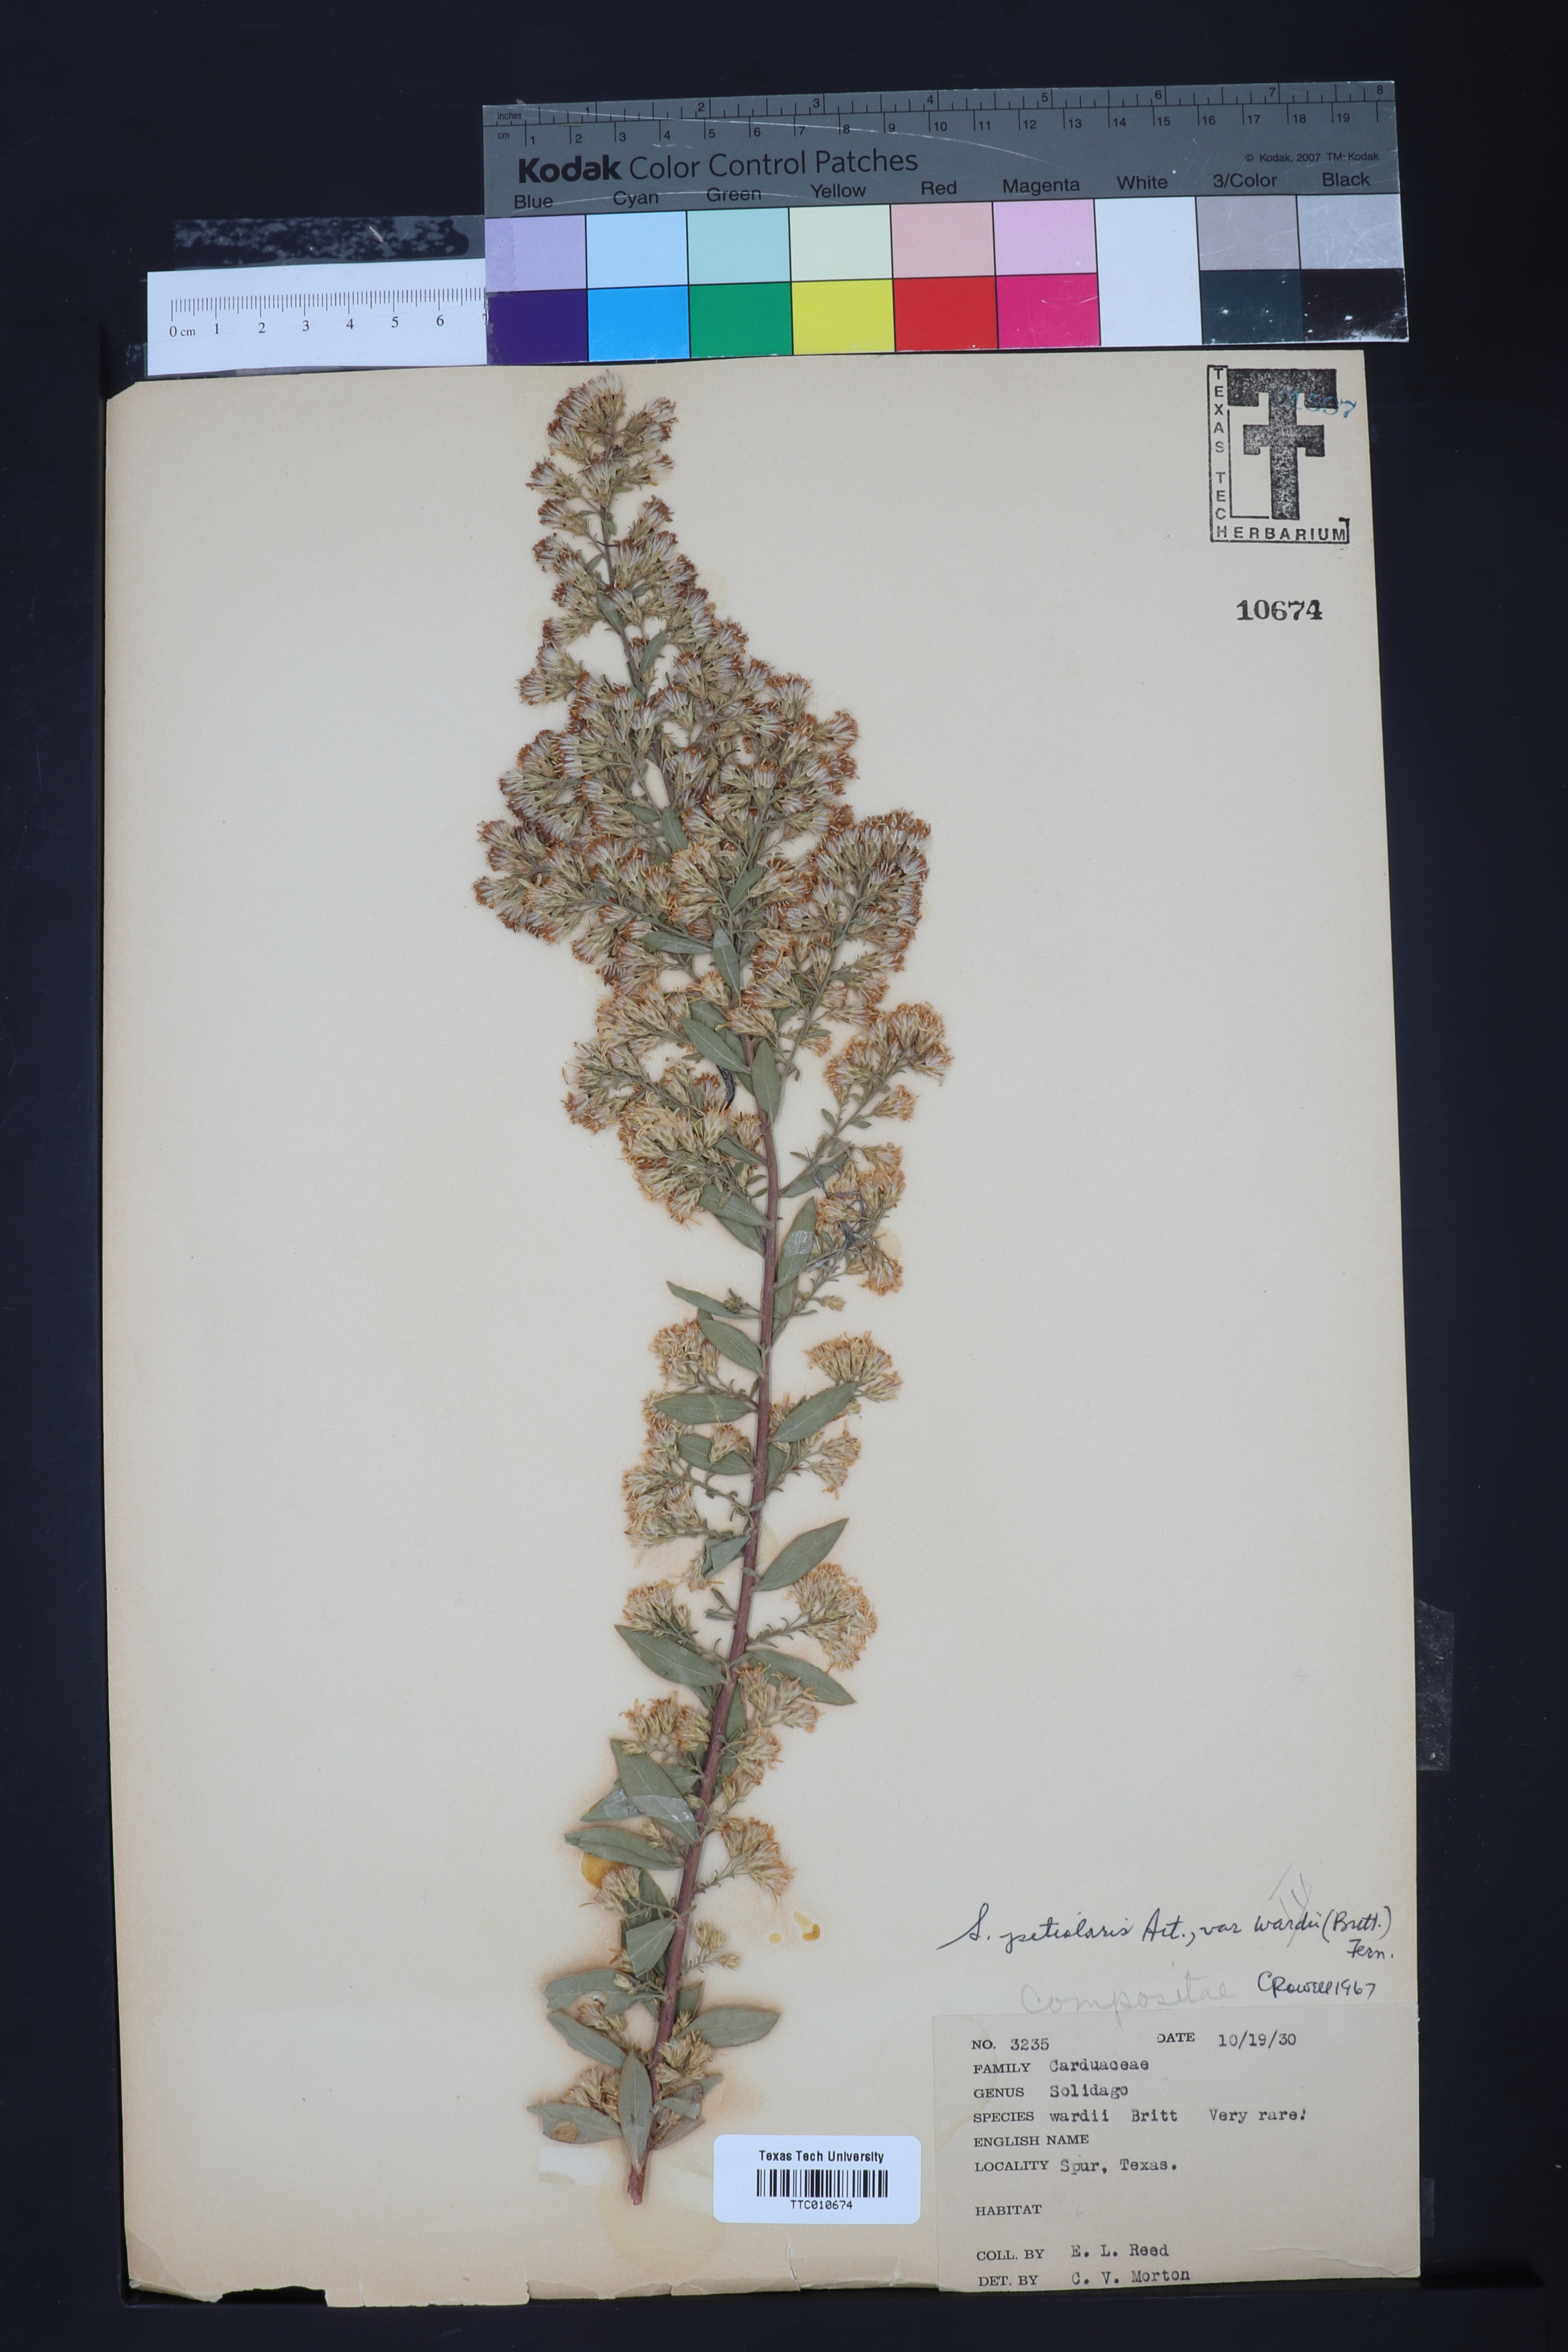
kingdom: Plantae
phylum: Tracheophyta
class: Magnoliopsida
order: Asterales
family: Asteraceae
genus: Solidago
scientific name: Solidago petiolaris
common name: Downy ragged goldenrod
